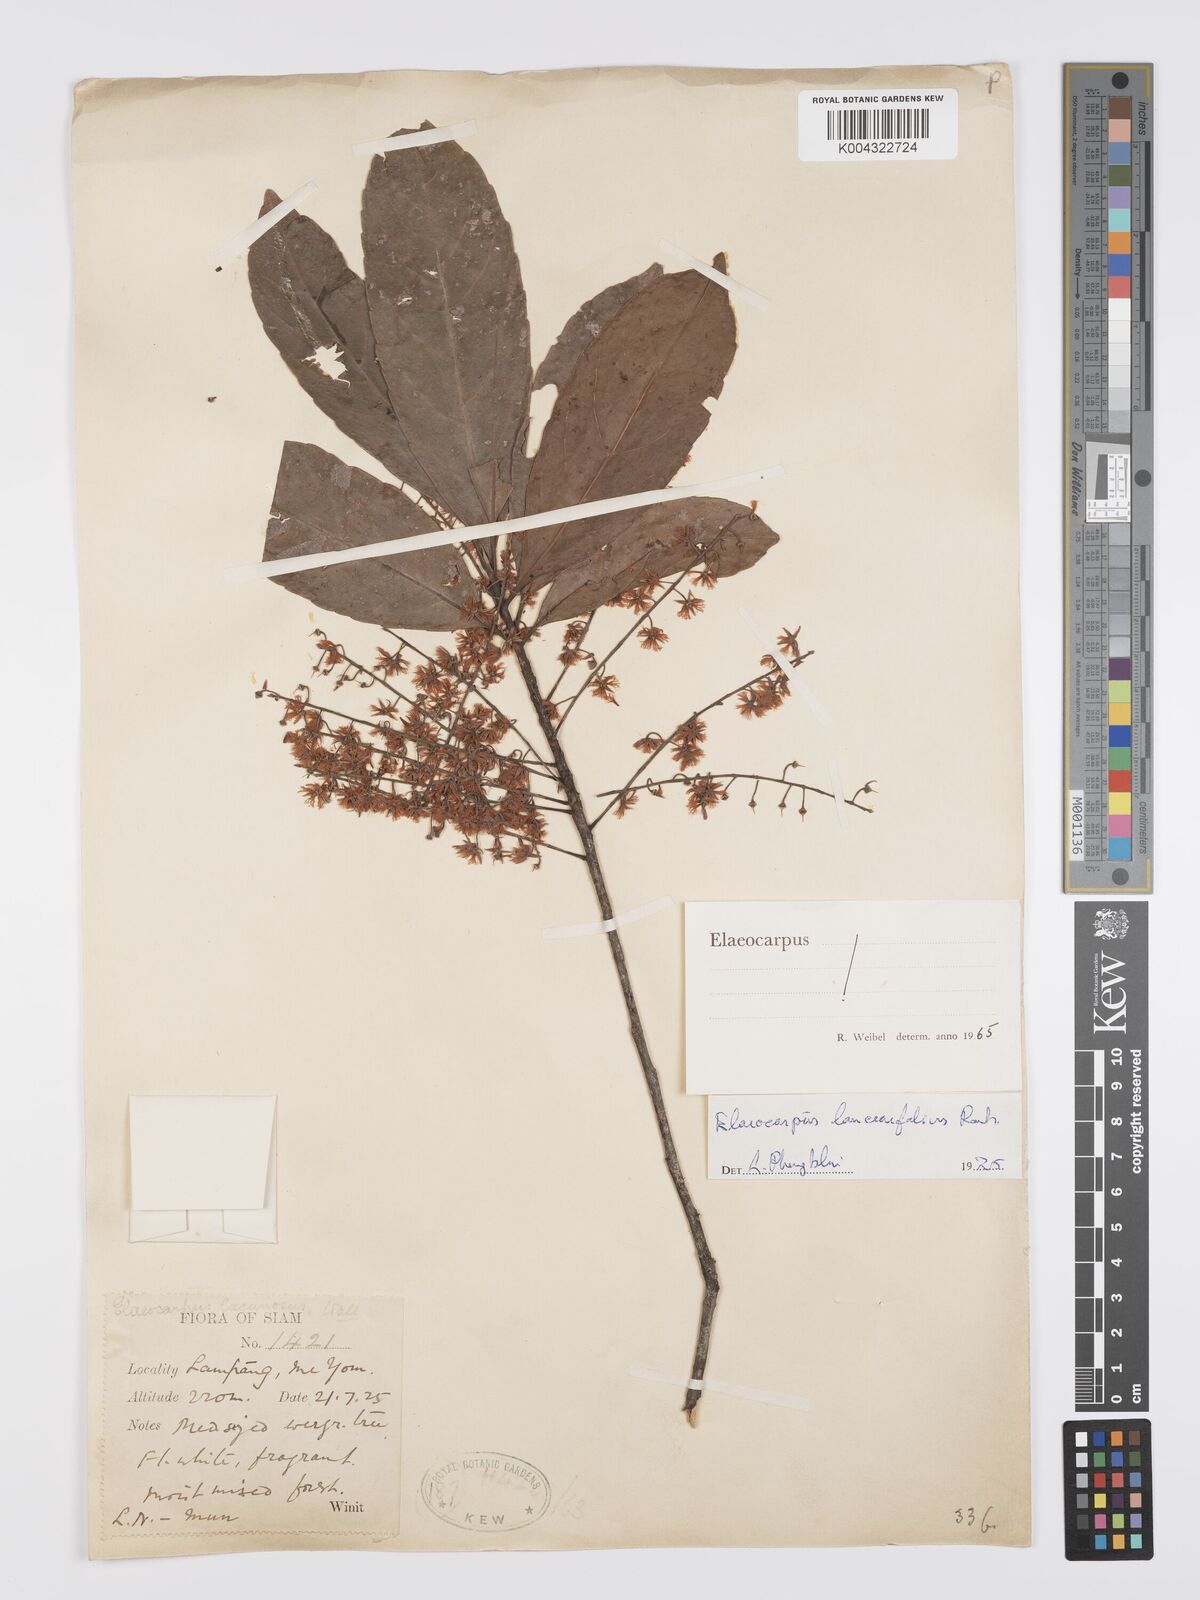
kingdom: Plantae
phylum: Tracheophyta
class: Magnoliopsida
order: Oxalidales
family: Elaeocarpaceae
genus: Elaeocarpus
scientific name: Elaeocarpus lanceifolius
